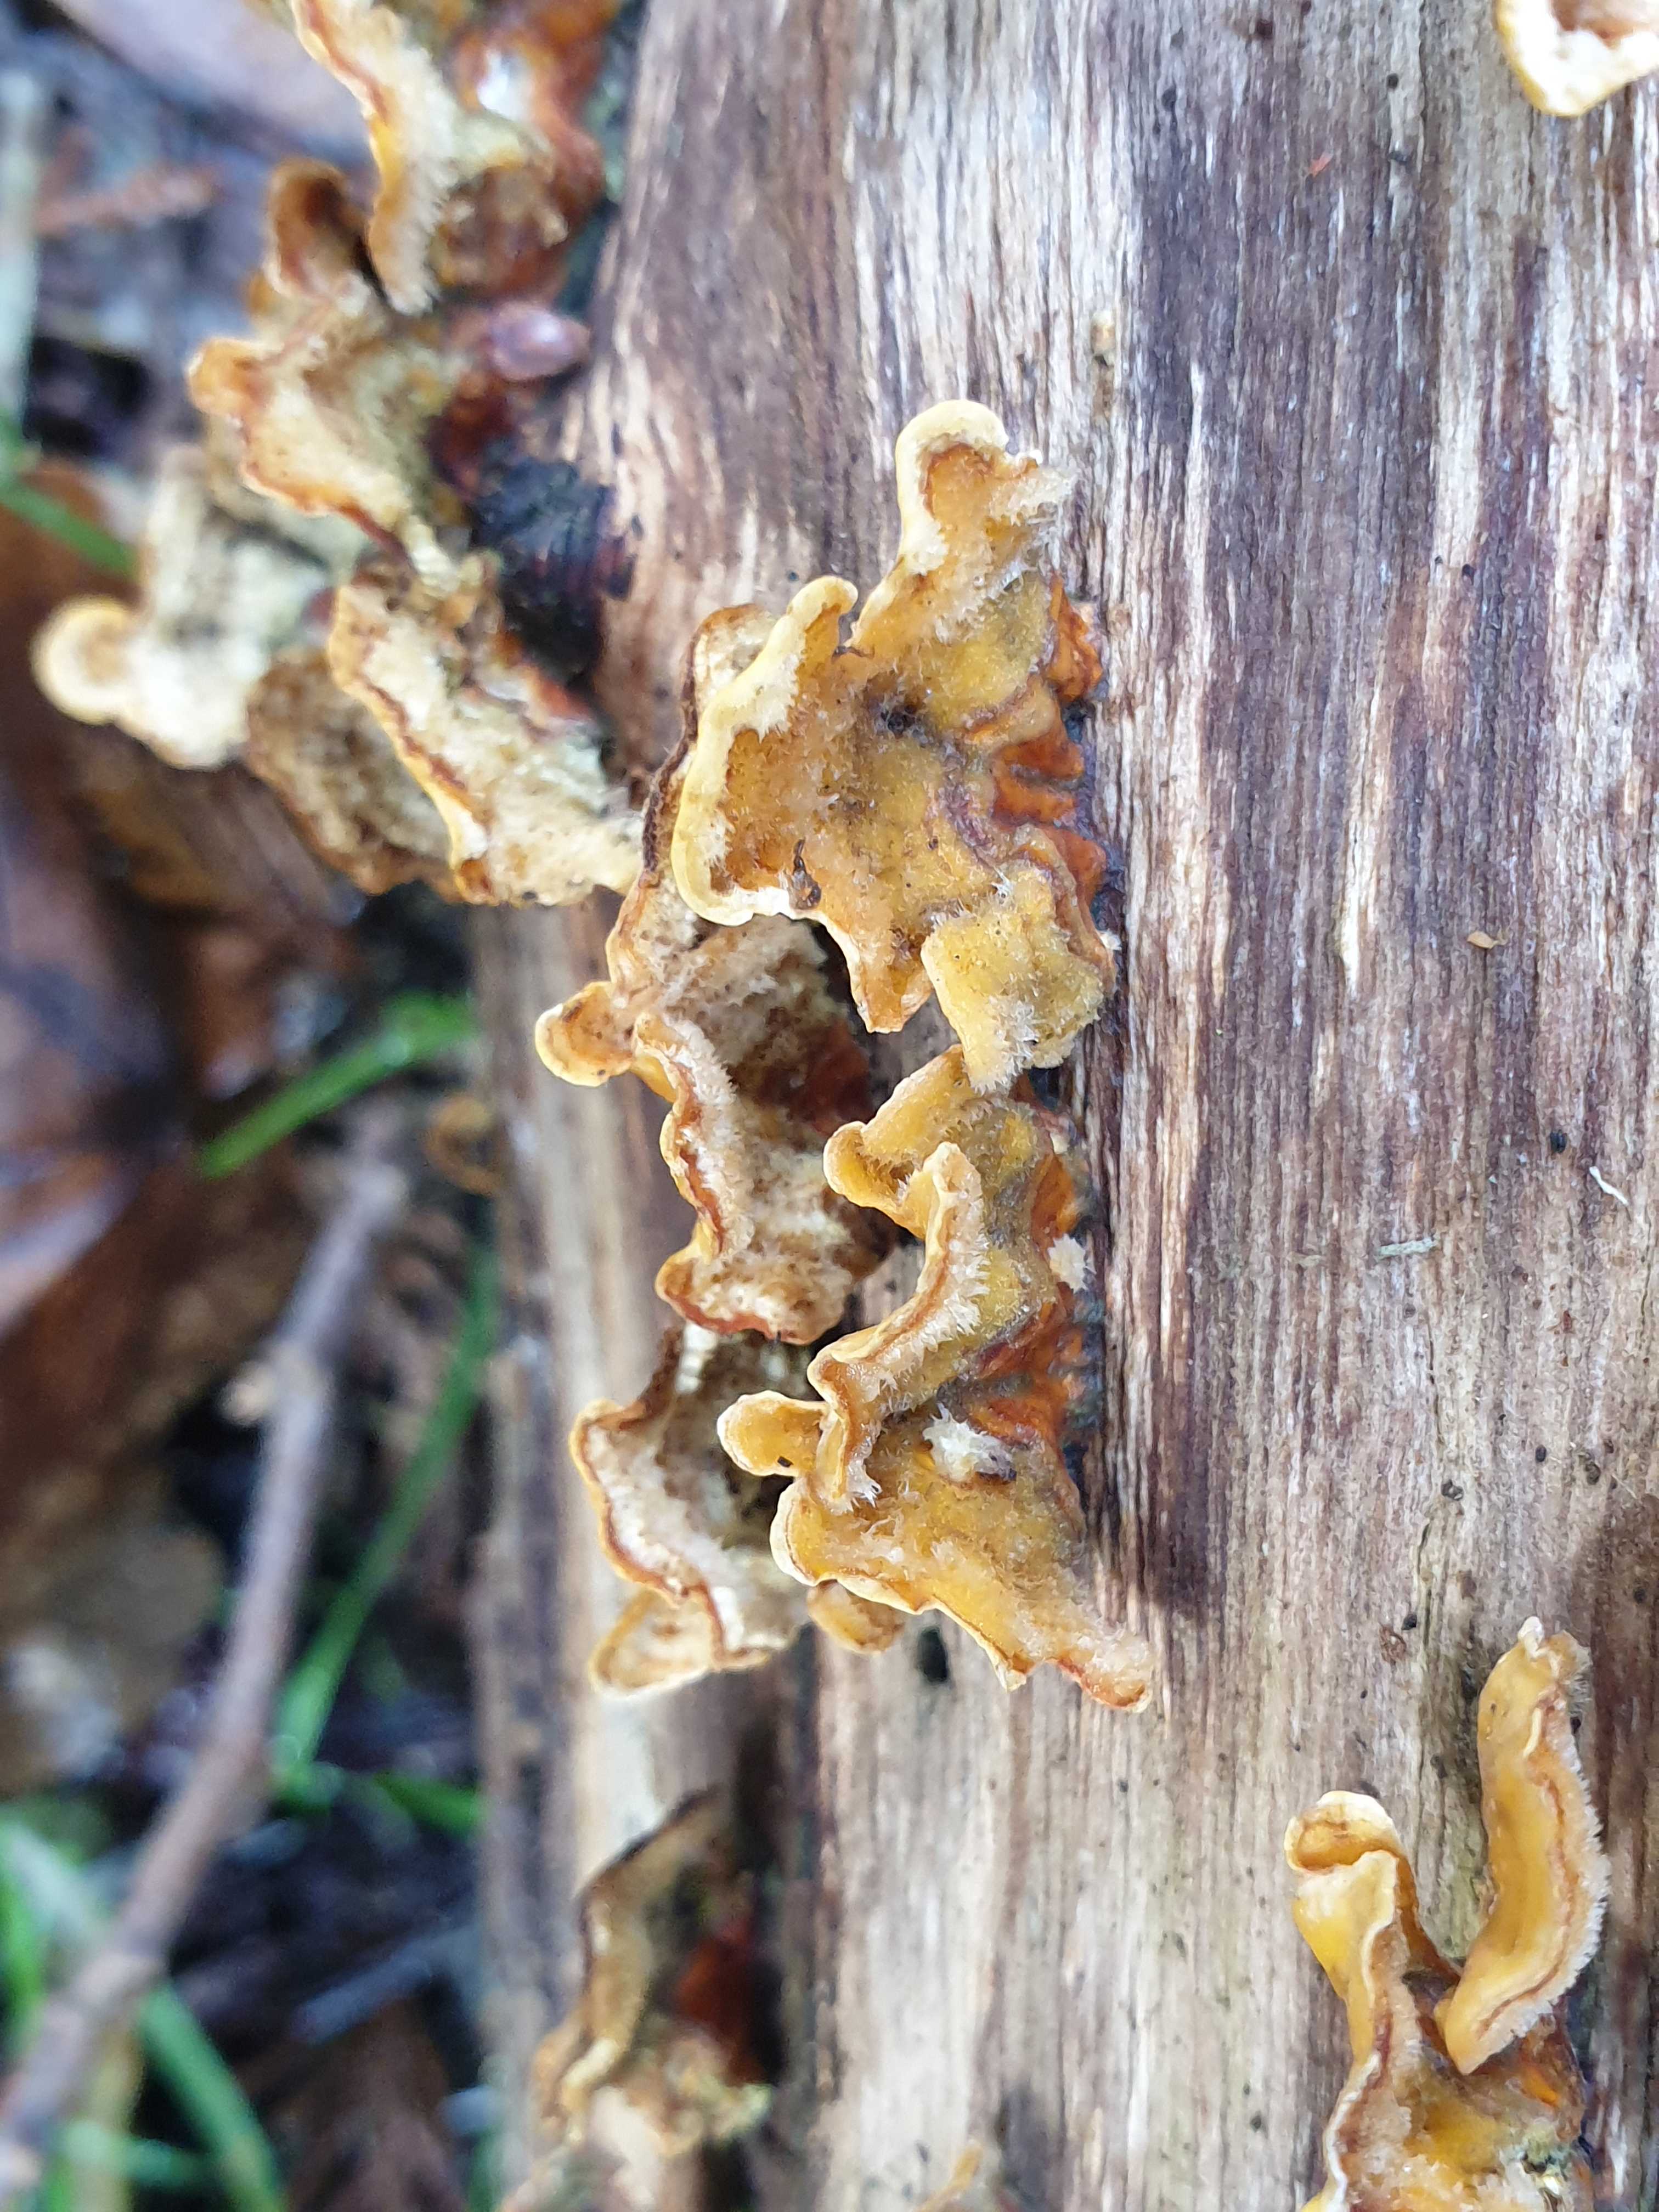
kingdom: Fungi
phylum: Basidiomycota
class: Agaricomycetes
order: Russulales
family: Stereaceae
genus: Stereum
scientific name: Stereum hirsutum
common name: håret lædersvamp
